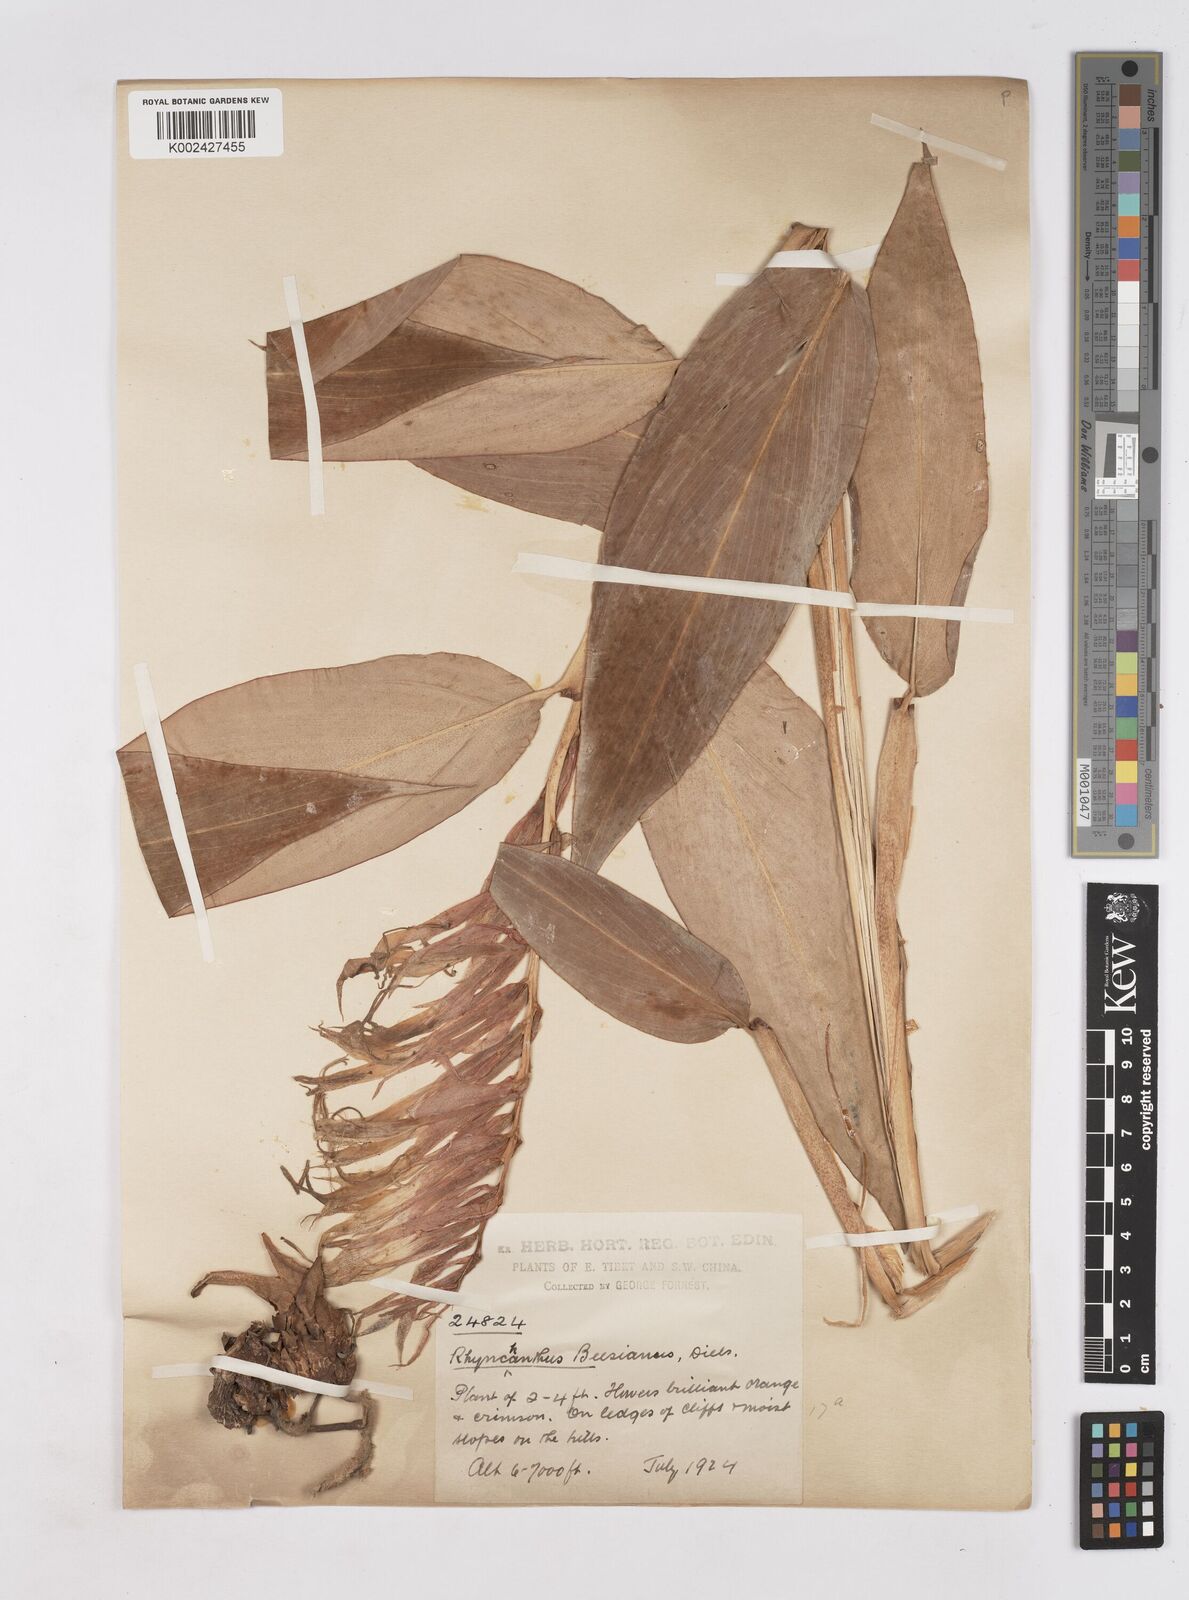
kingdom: Plantae
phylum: Tracheophyta
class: Liliopsida
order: Zingiberales
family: Zingiberaceae
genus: Rhynchanthus
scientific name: Rhynchanthus beesianus
